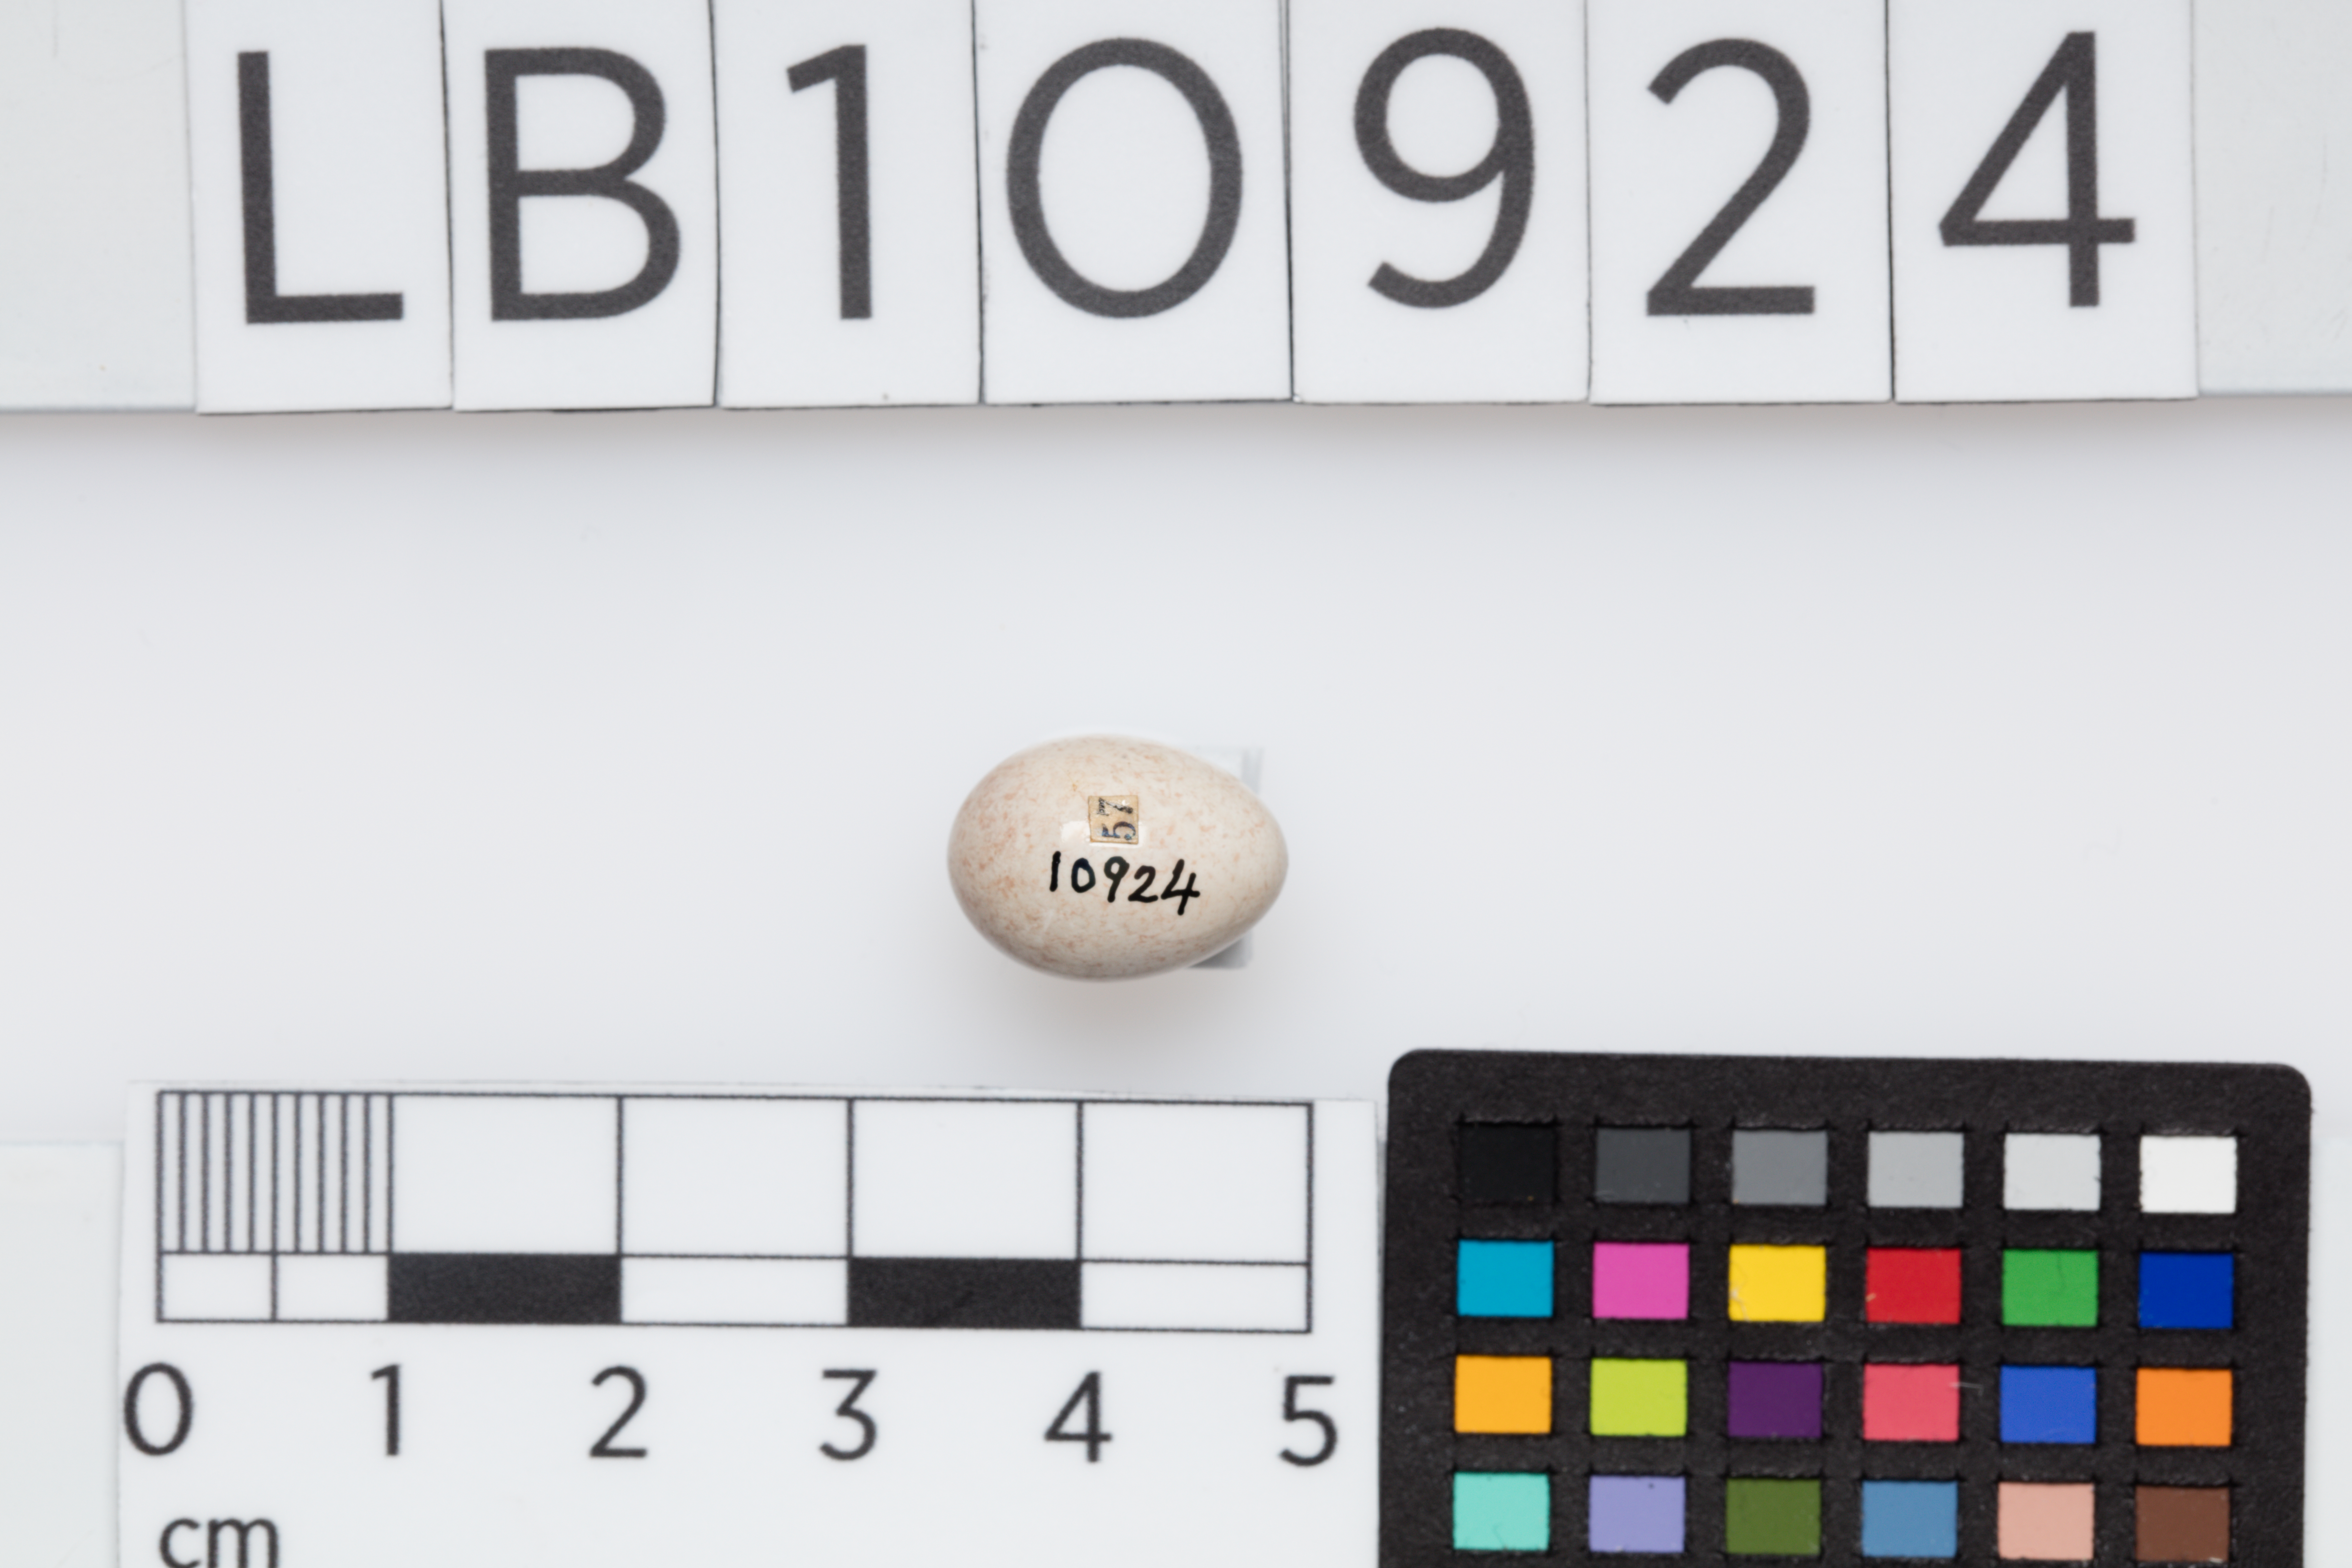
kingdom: Animalia
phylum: Chordata
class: Aves
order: Passeriformes
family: Aegithalidae
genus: Aegithalos
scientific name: Aegithalos caudatus
